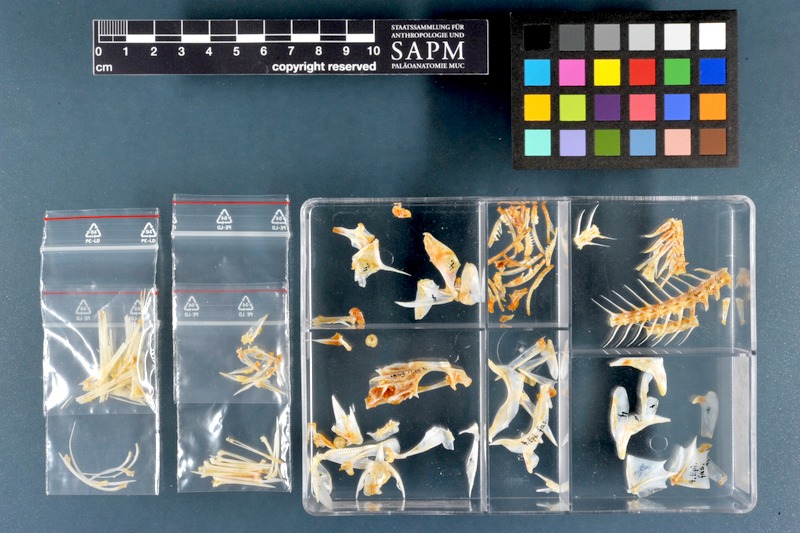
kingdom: Animalia
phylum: Chordata
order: Perciformes
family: Serranidae
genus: Epinephelus
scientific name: Epinephelus fasciatus
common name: Blacktip grouper
